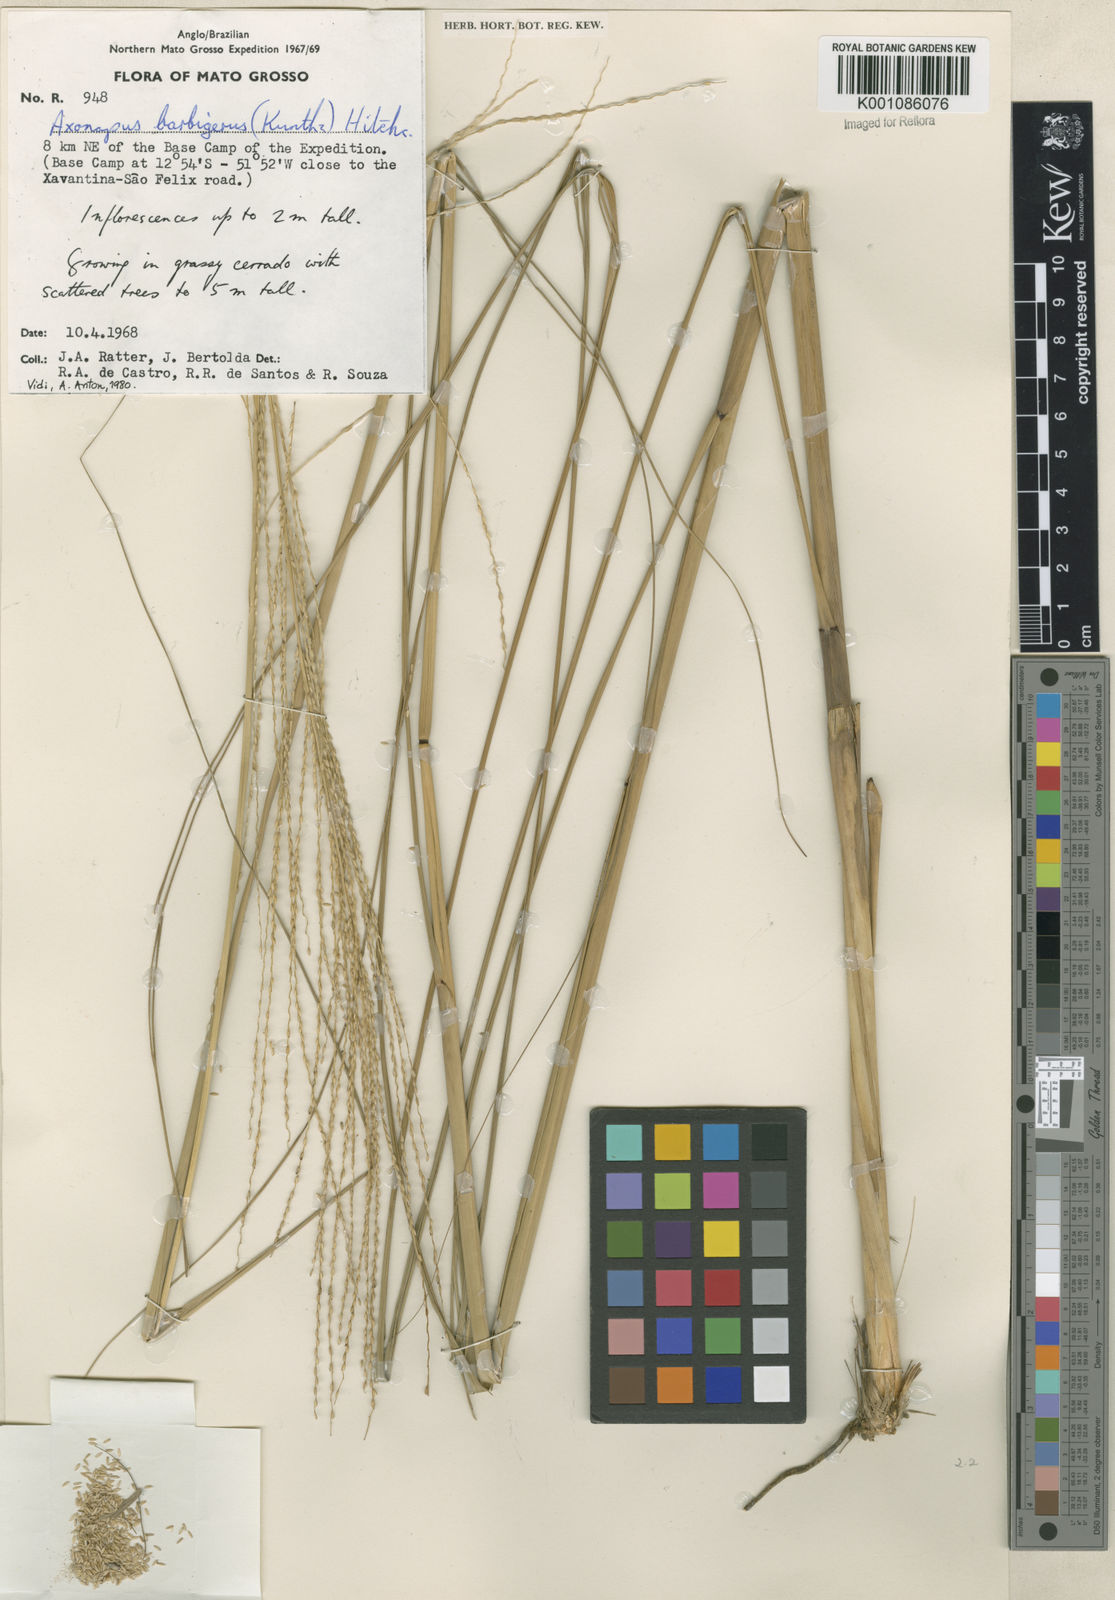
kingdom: Plantae
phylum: Tracheophyta
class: Liliopsida
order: Poales
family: Poaceae
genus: Axonopus
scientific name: Axonopus siccus
